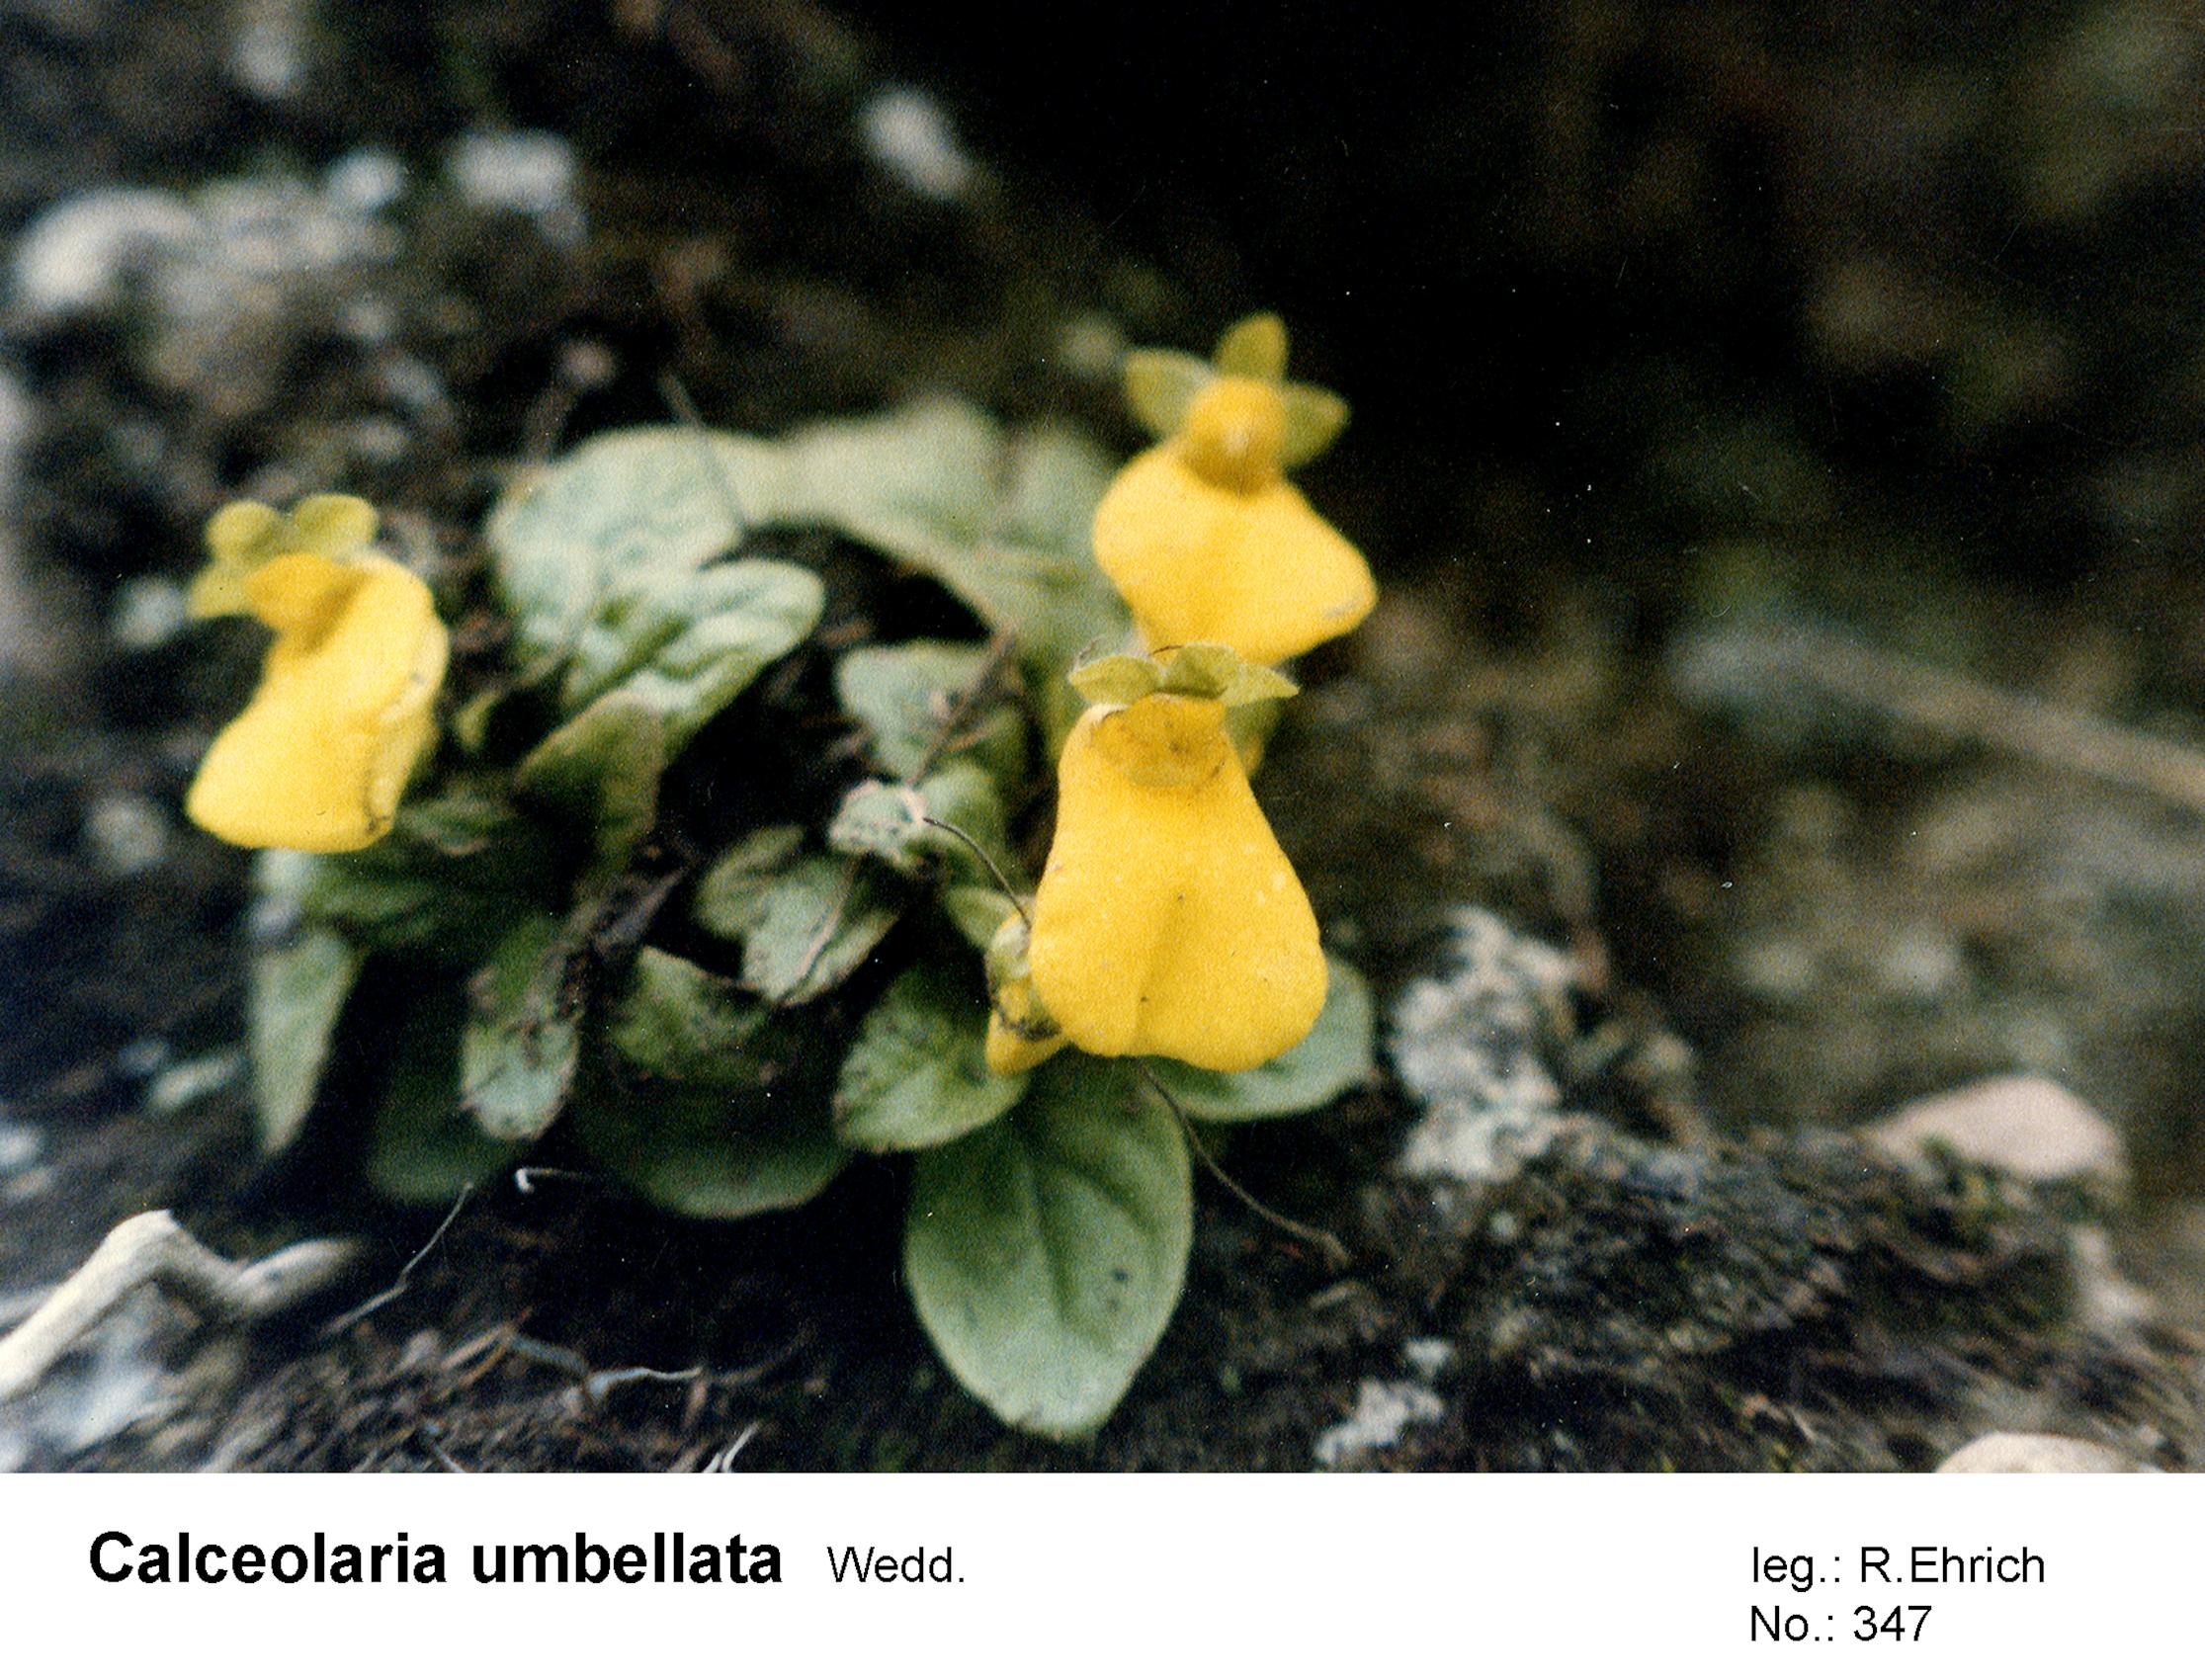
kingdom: Plantae
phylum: Tracheophyta
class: Magnoliopsida
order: Lamiales
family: Calceolariaceae
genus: Calceolaria
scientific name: Calceolaria umbellata
